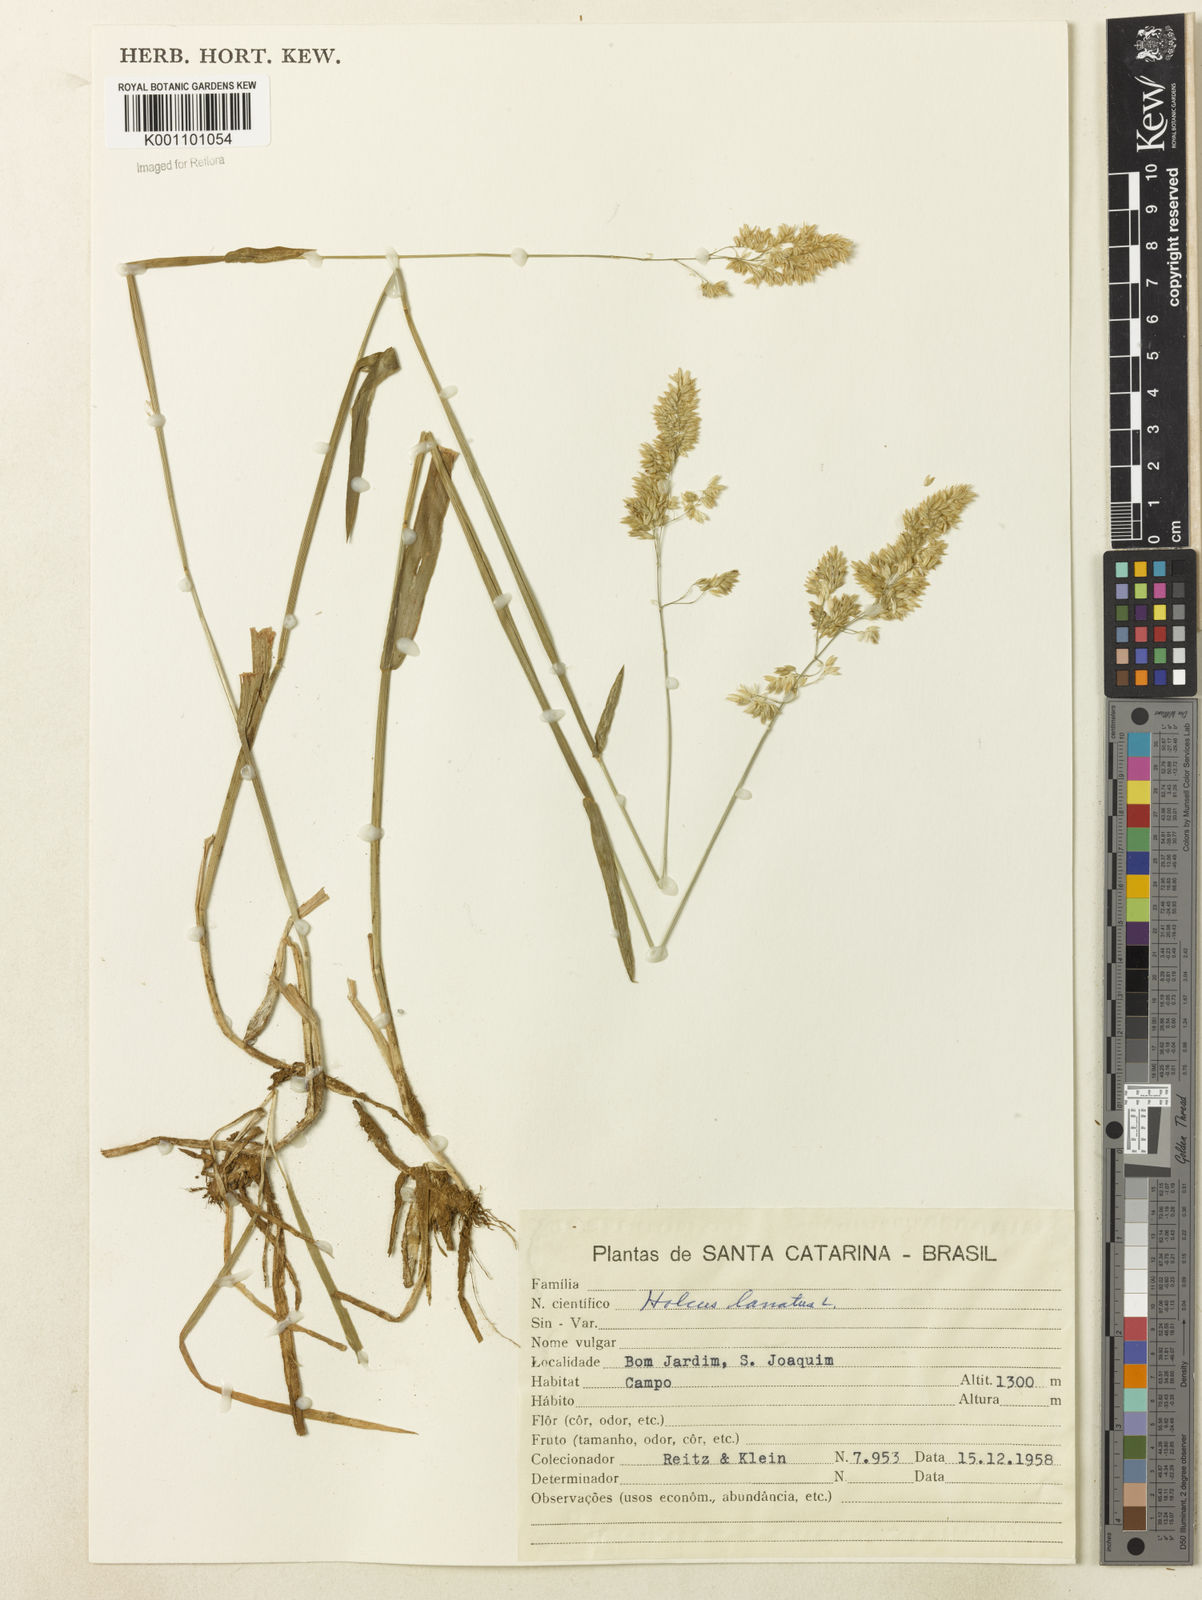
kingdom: Plantae
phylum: Tracheophyta
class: Liliopsida
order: Poales
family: Poaceae
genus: Holcus
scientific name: Holcus lanatus
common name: Yorkshire-fog
